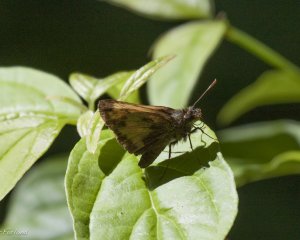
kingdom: Animalia
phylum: Arthropoda
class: Insecta
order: Lepidoptera
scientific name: Lepidoptera
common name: Butterflies
